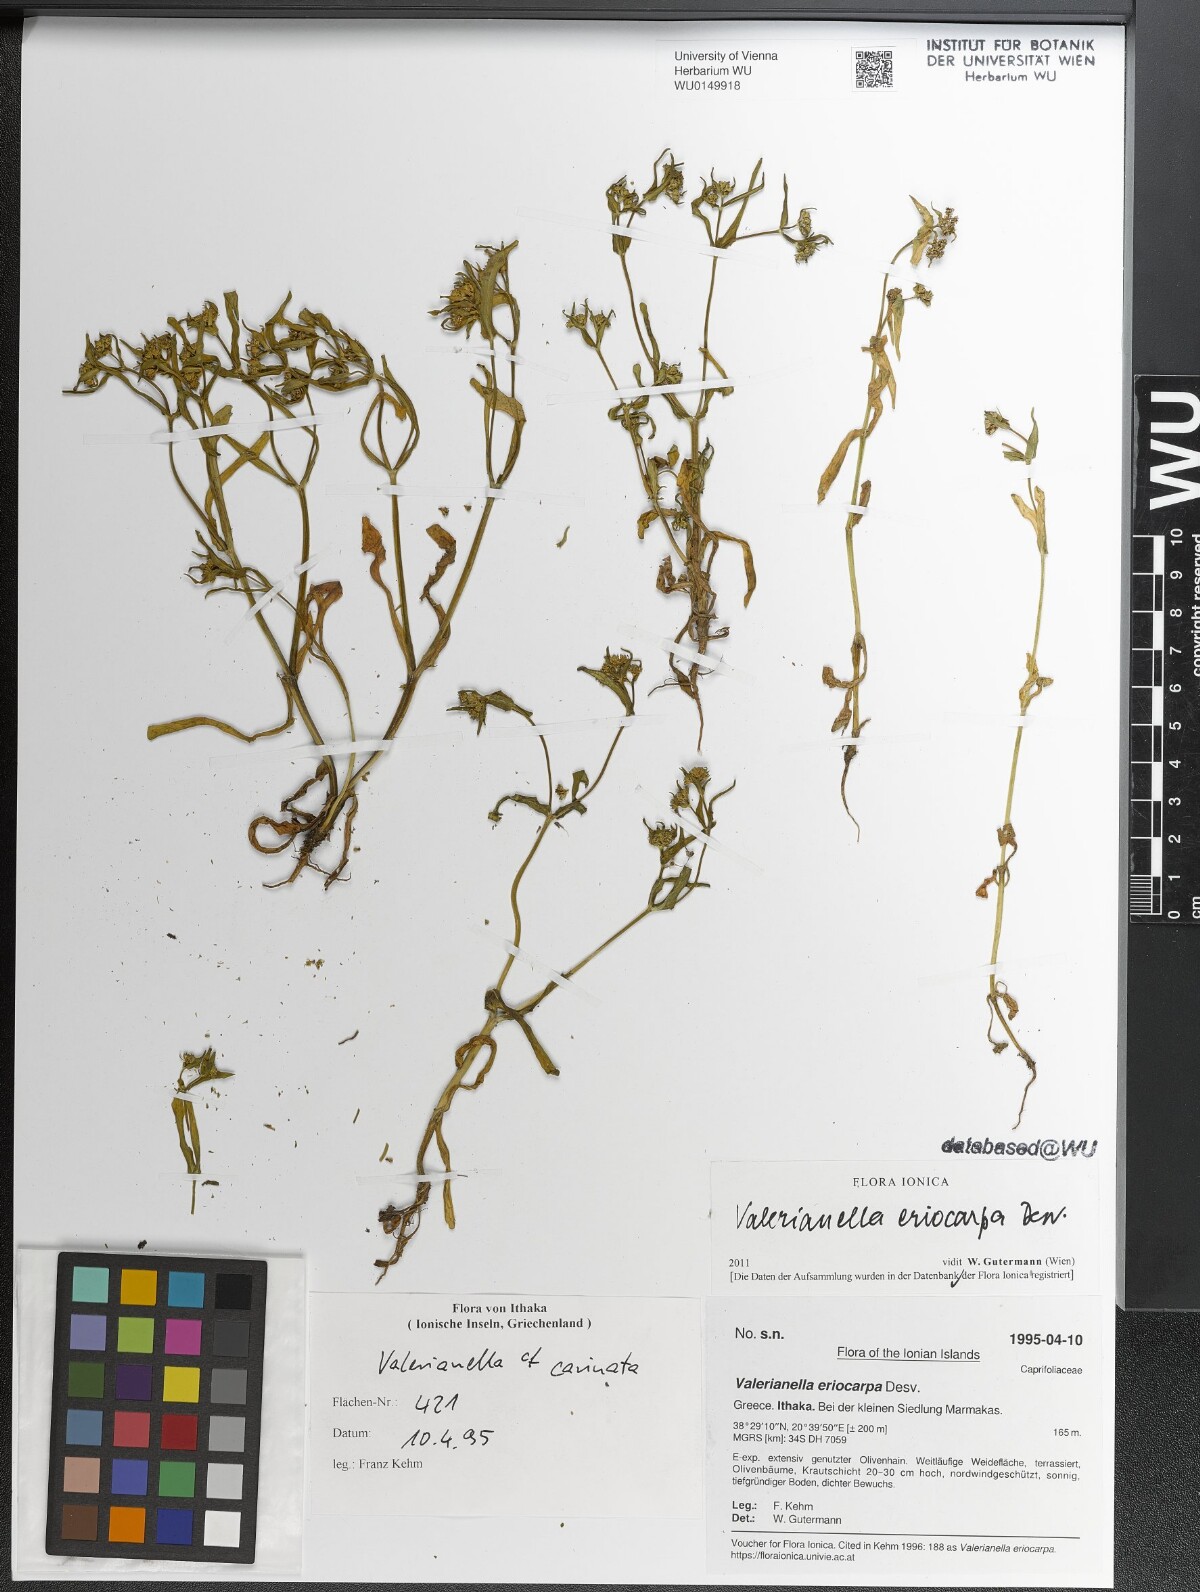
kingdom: Plantae
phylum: Tracheophyta
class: Magnoliopsida
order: Dipsacales
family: Caprifoliaceae
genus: Valerianella
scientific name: Valerianella eriocarpa
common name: Hairy-fruited cornsalad
